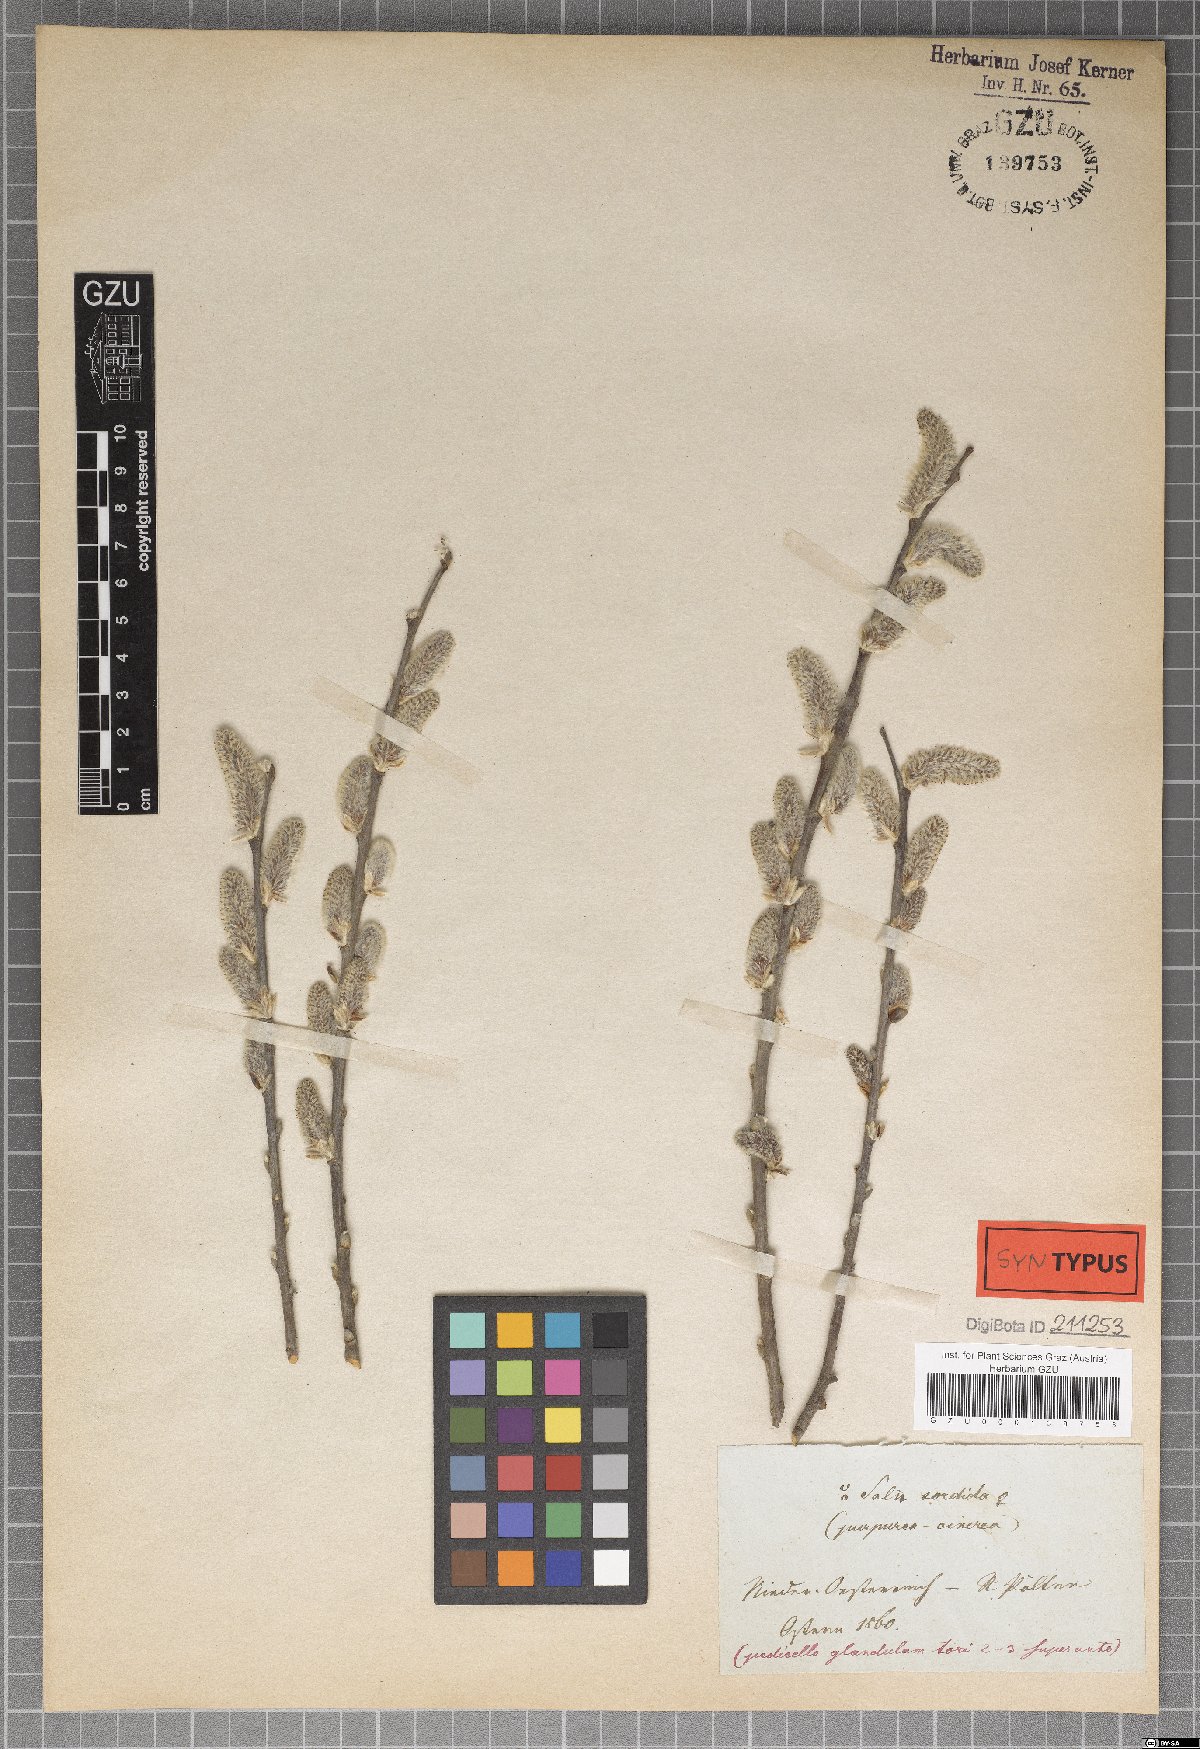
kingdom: Plantae
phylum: Tracheophyta
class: Magnoliopsida
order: Malpighiales
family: Salicaceae
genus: Salix
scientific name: Salix sordida
